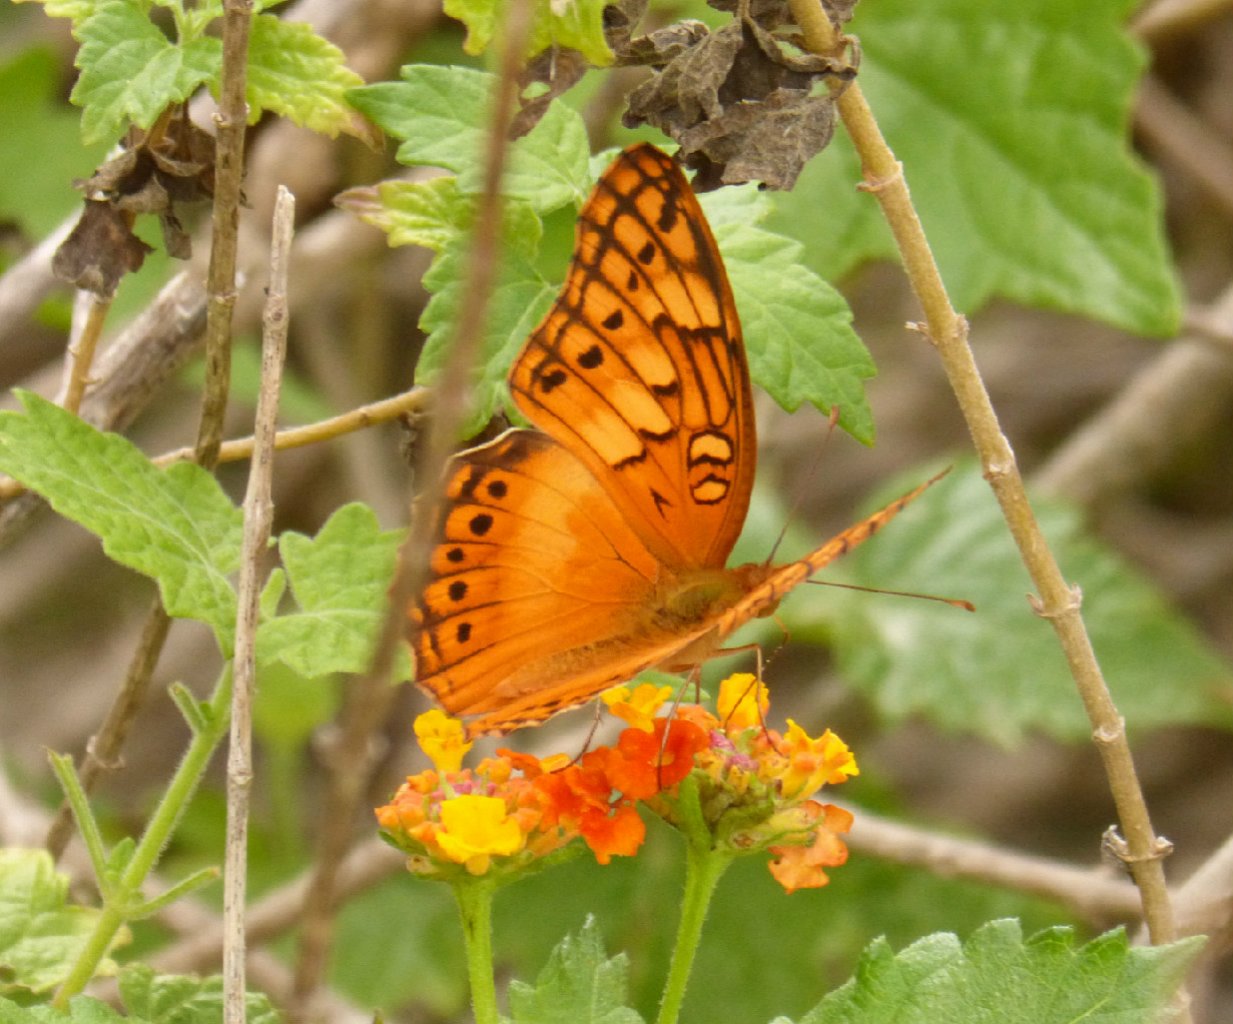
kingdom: Animalia
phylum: Arthropoda
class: Insecta
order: Lepidoptera
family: Nymphalidae
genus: Euptoieta
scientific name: Euptoieta hegesia
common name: Mexican Fritillary
